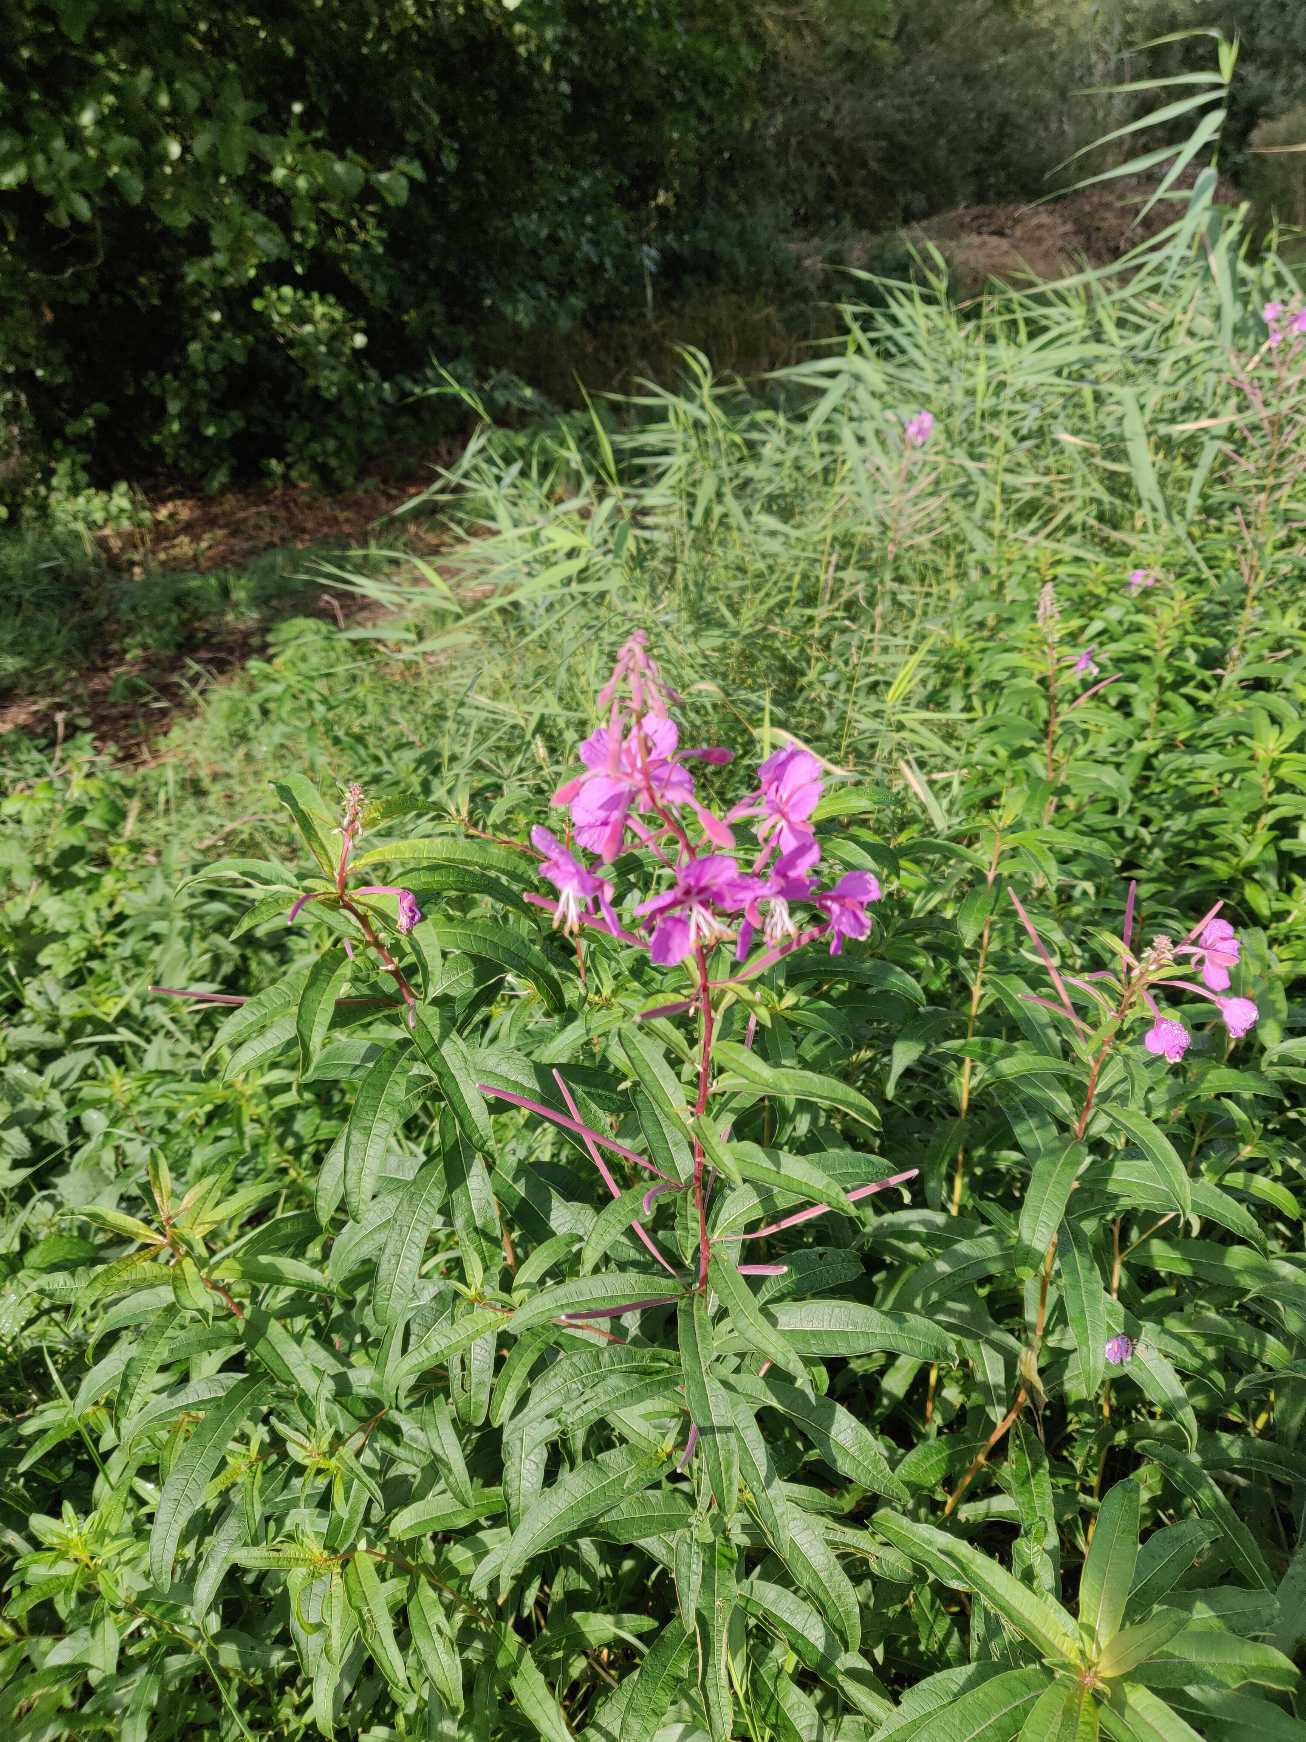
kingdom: Plantae
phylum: Tracheophyta
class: Magnoliopsida
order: Myrtales
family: Onagraceae
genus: Chamaenerion
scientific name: Chamaenerion angustifolium
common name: Gederams
